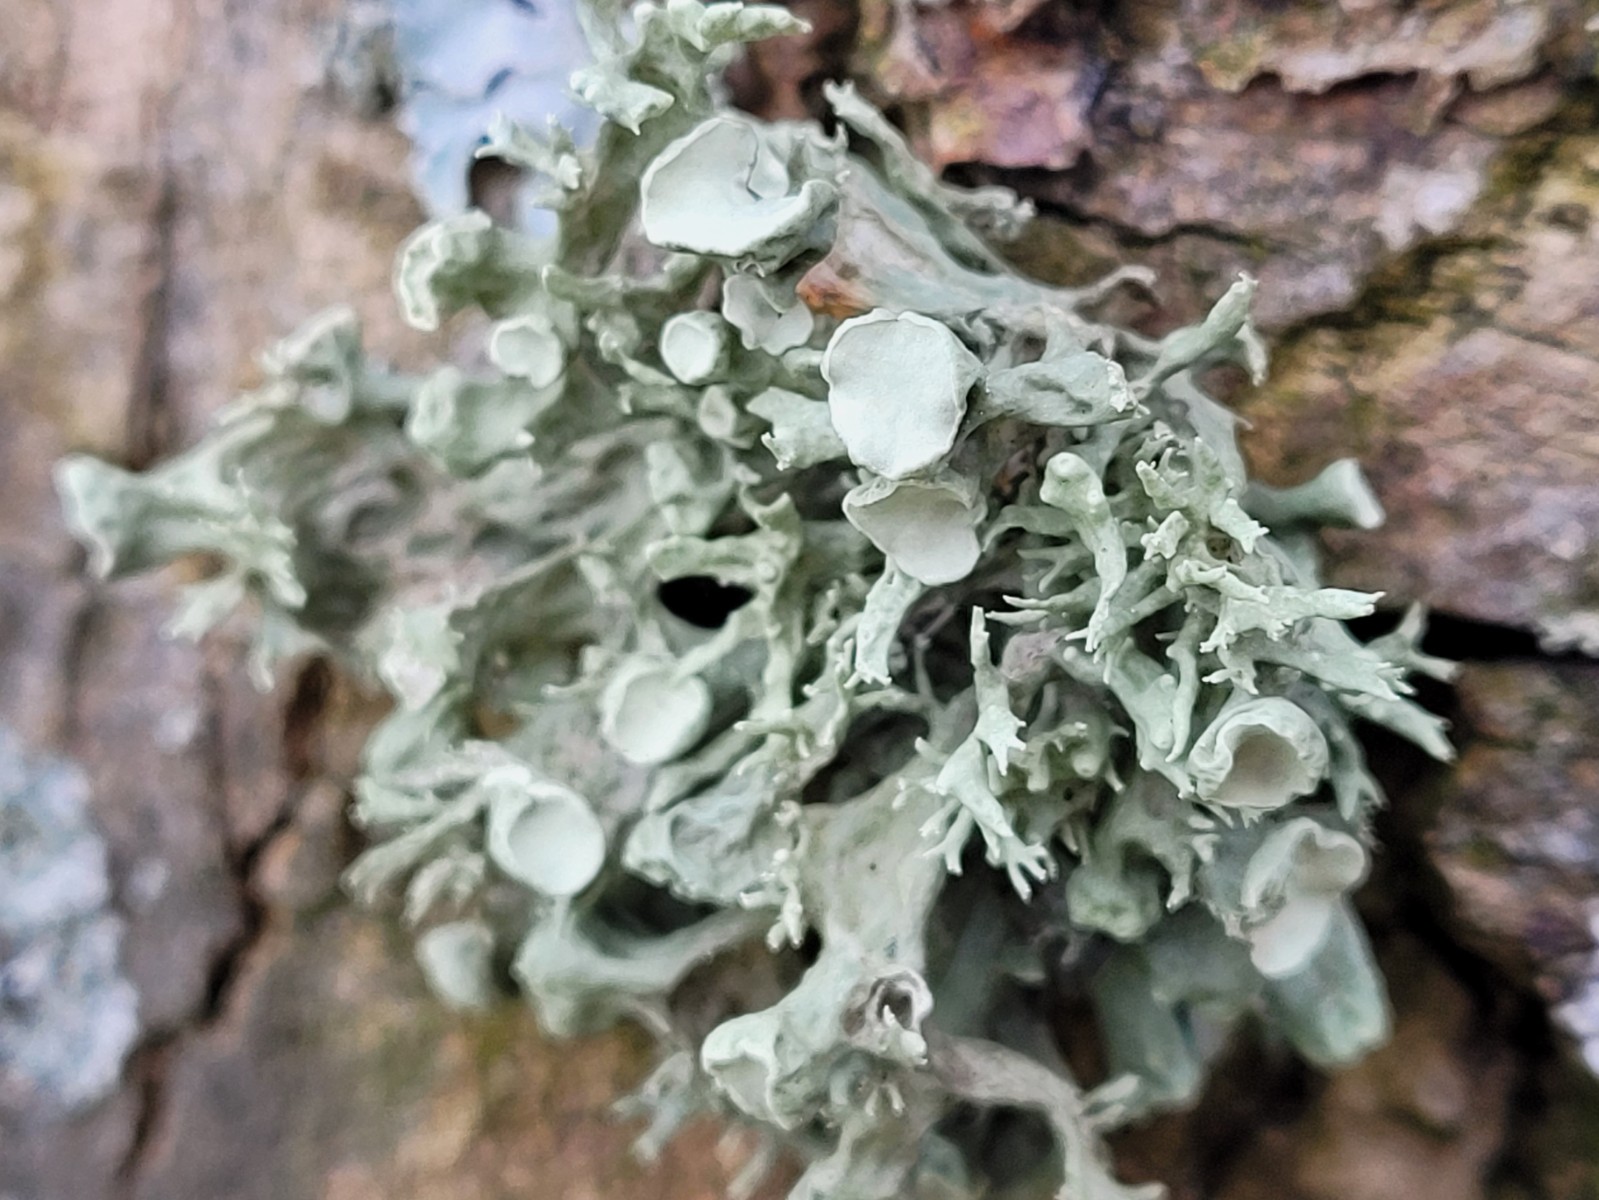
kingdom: Fungi
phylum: Ascomycota
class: Lecanoromycetes
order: Lecanorales
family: Ramalinaceae
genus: Ramalina
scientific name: Ramalina fastigiata
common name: tue-grenlav
